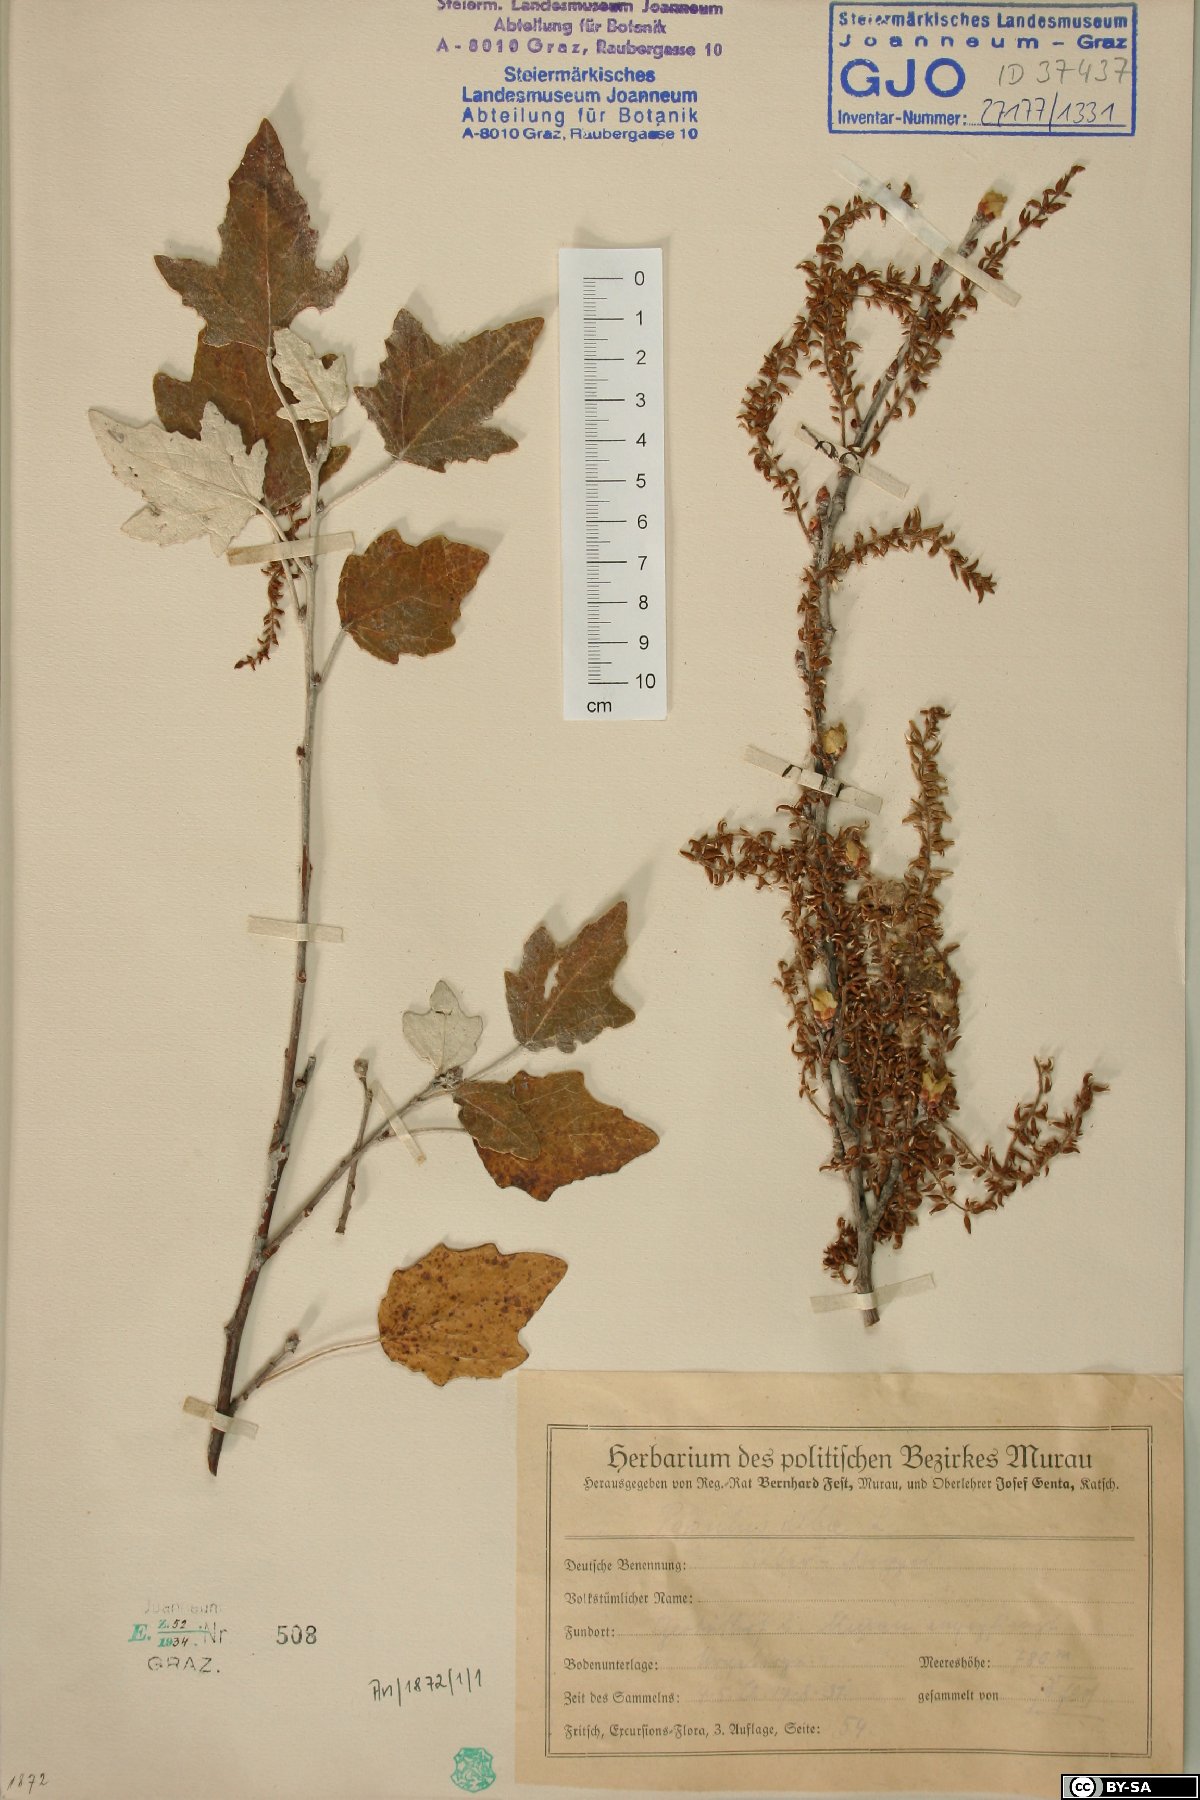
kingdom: Plantae
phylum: Tracheophyta
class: Magnoliopsida
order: Malpighiales
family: Salicaceae
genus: Populus
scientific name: Populus alba
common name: White poplar
